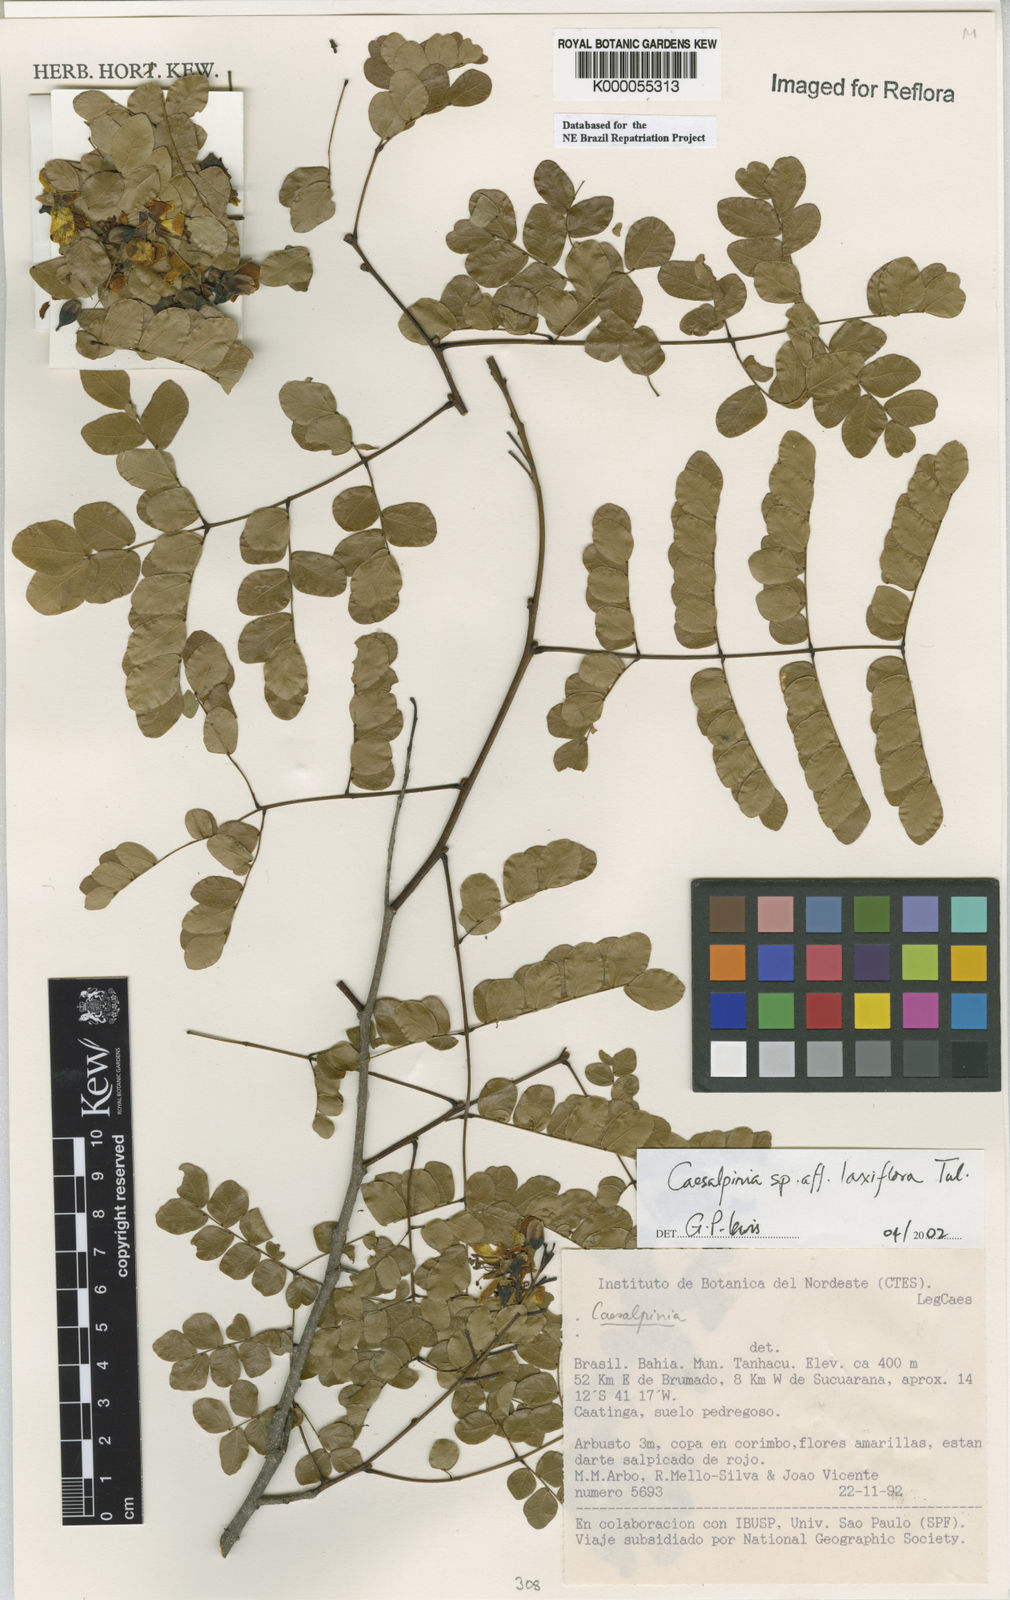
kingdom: Plantae
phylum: Tracheophyta
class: Magnoliopsida
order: Fabales
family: Fabaceae
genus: Cenostigma
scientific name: Cenostigma laxiflorum
